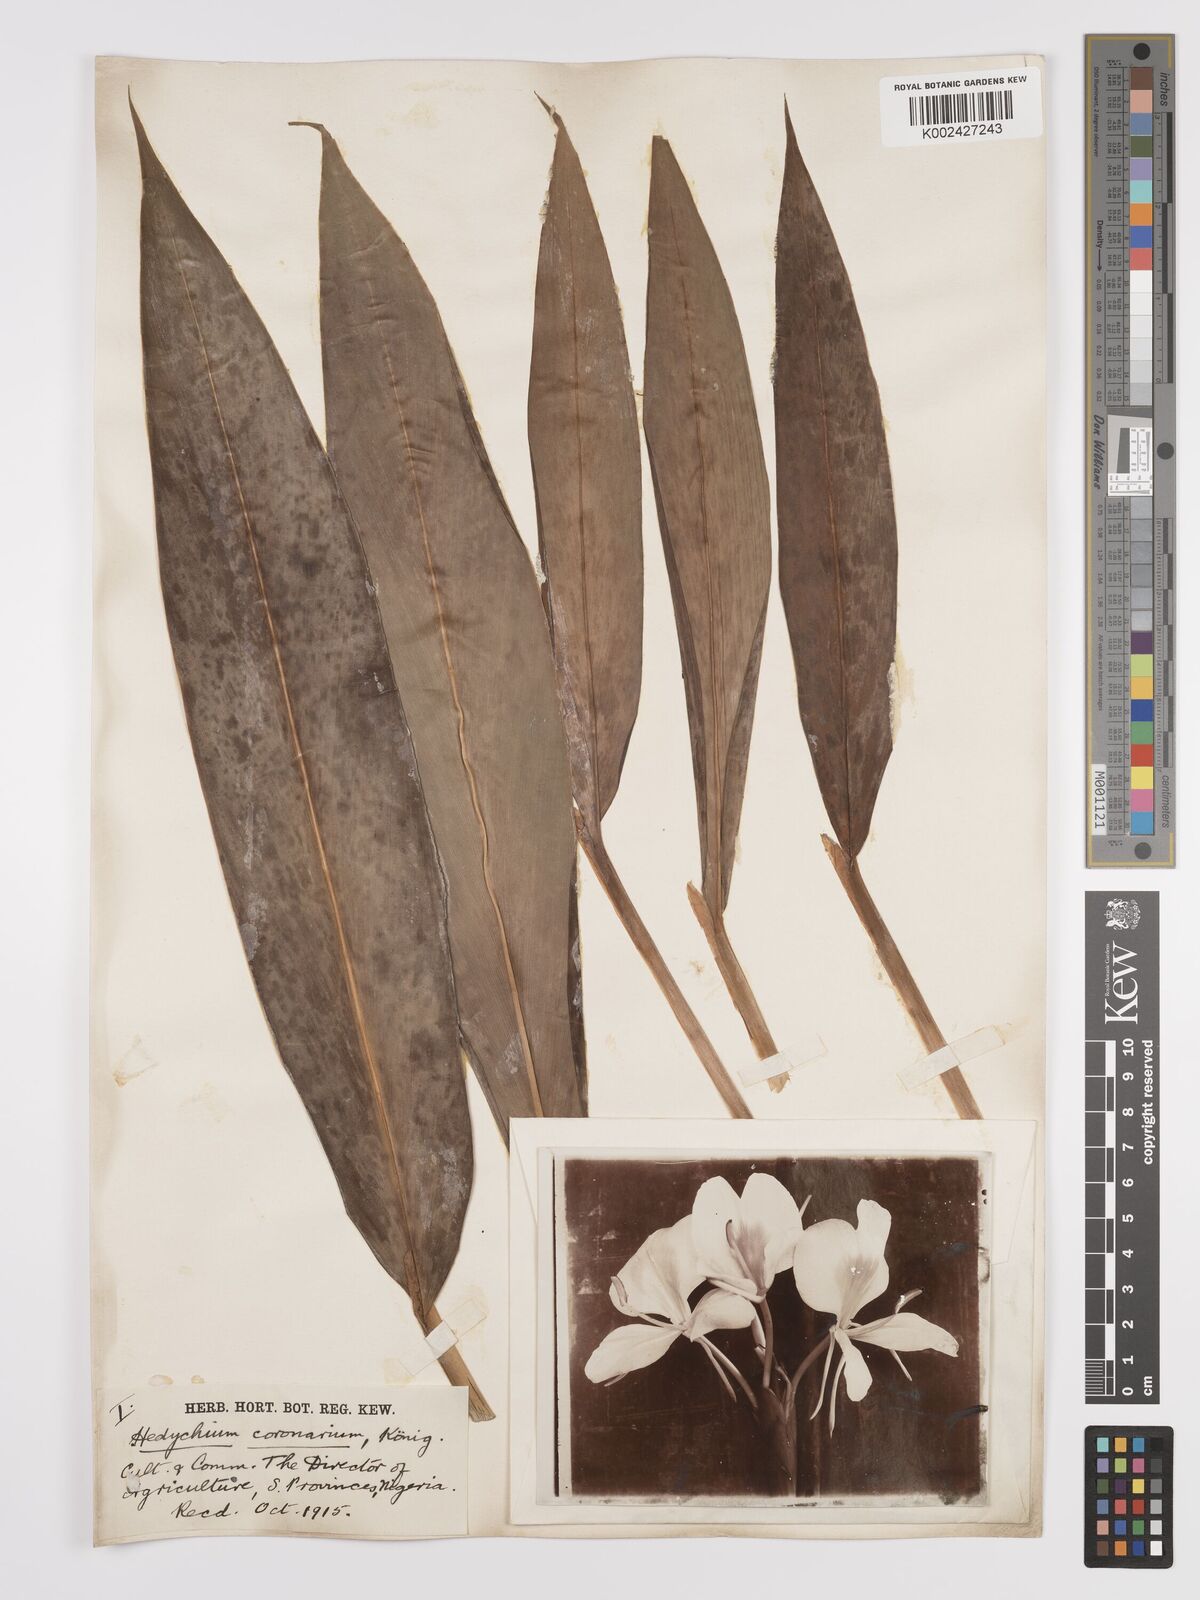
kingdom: Plantae
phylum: Tracheophyta
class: Liliopsida
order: Zingiberales
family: Zingiberaceae
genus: Hedychium
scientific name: Hedychium coronarium
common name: White garland-lily
